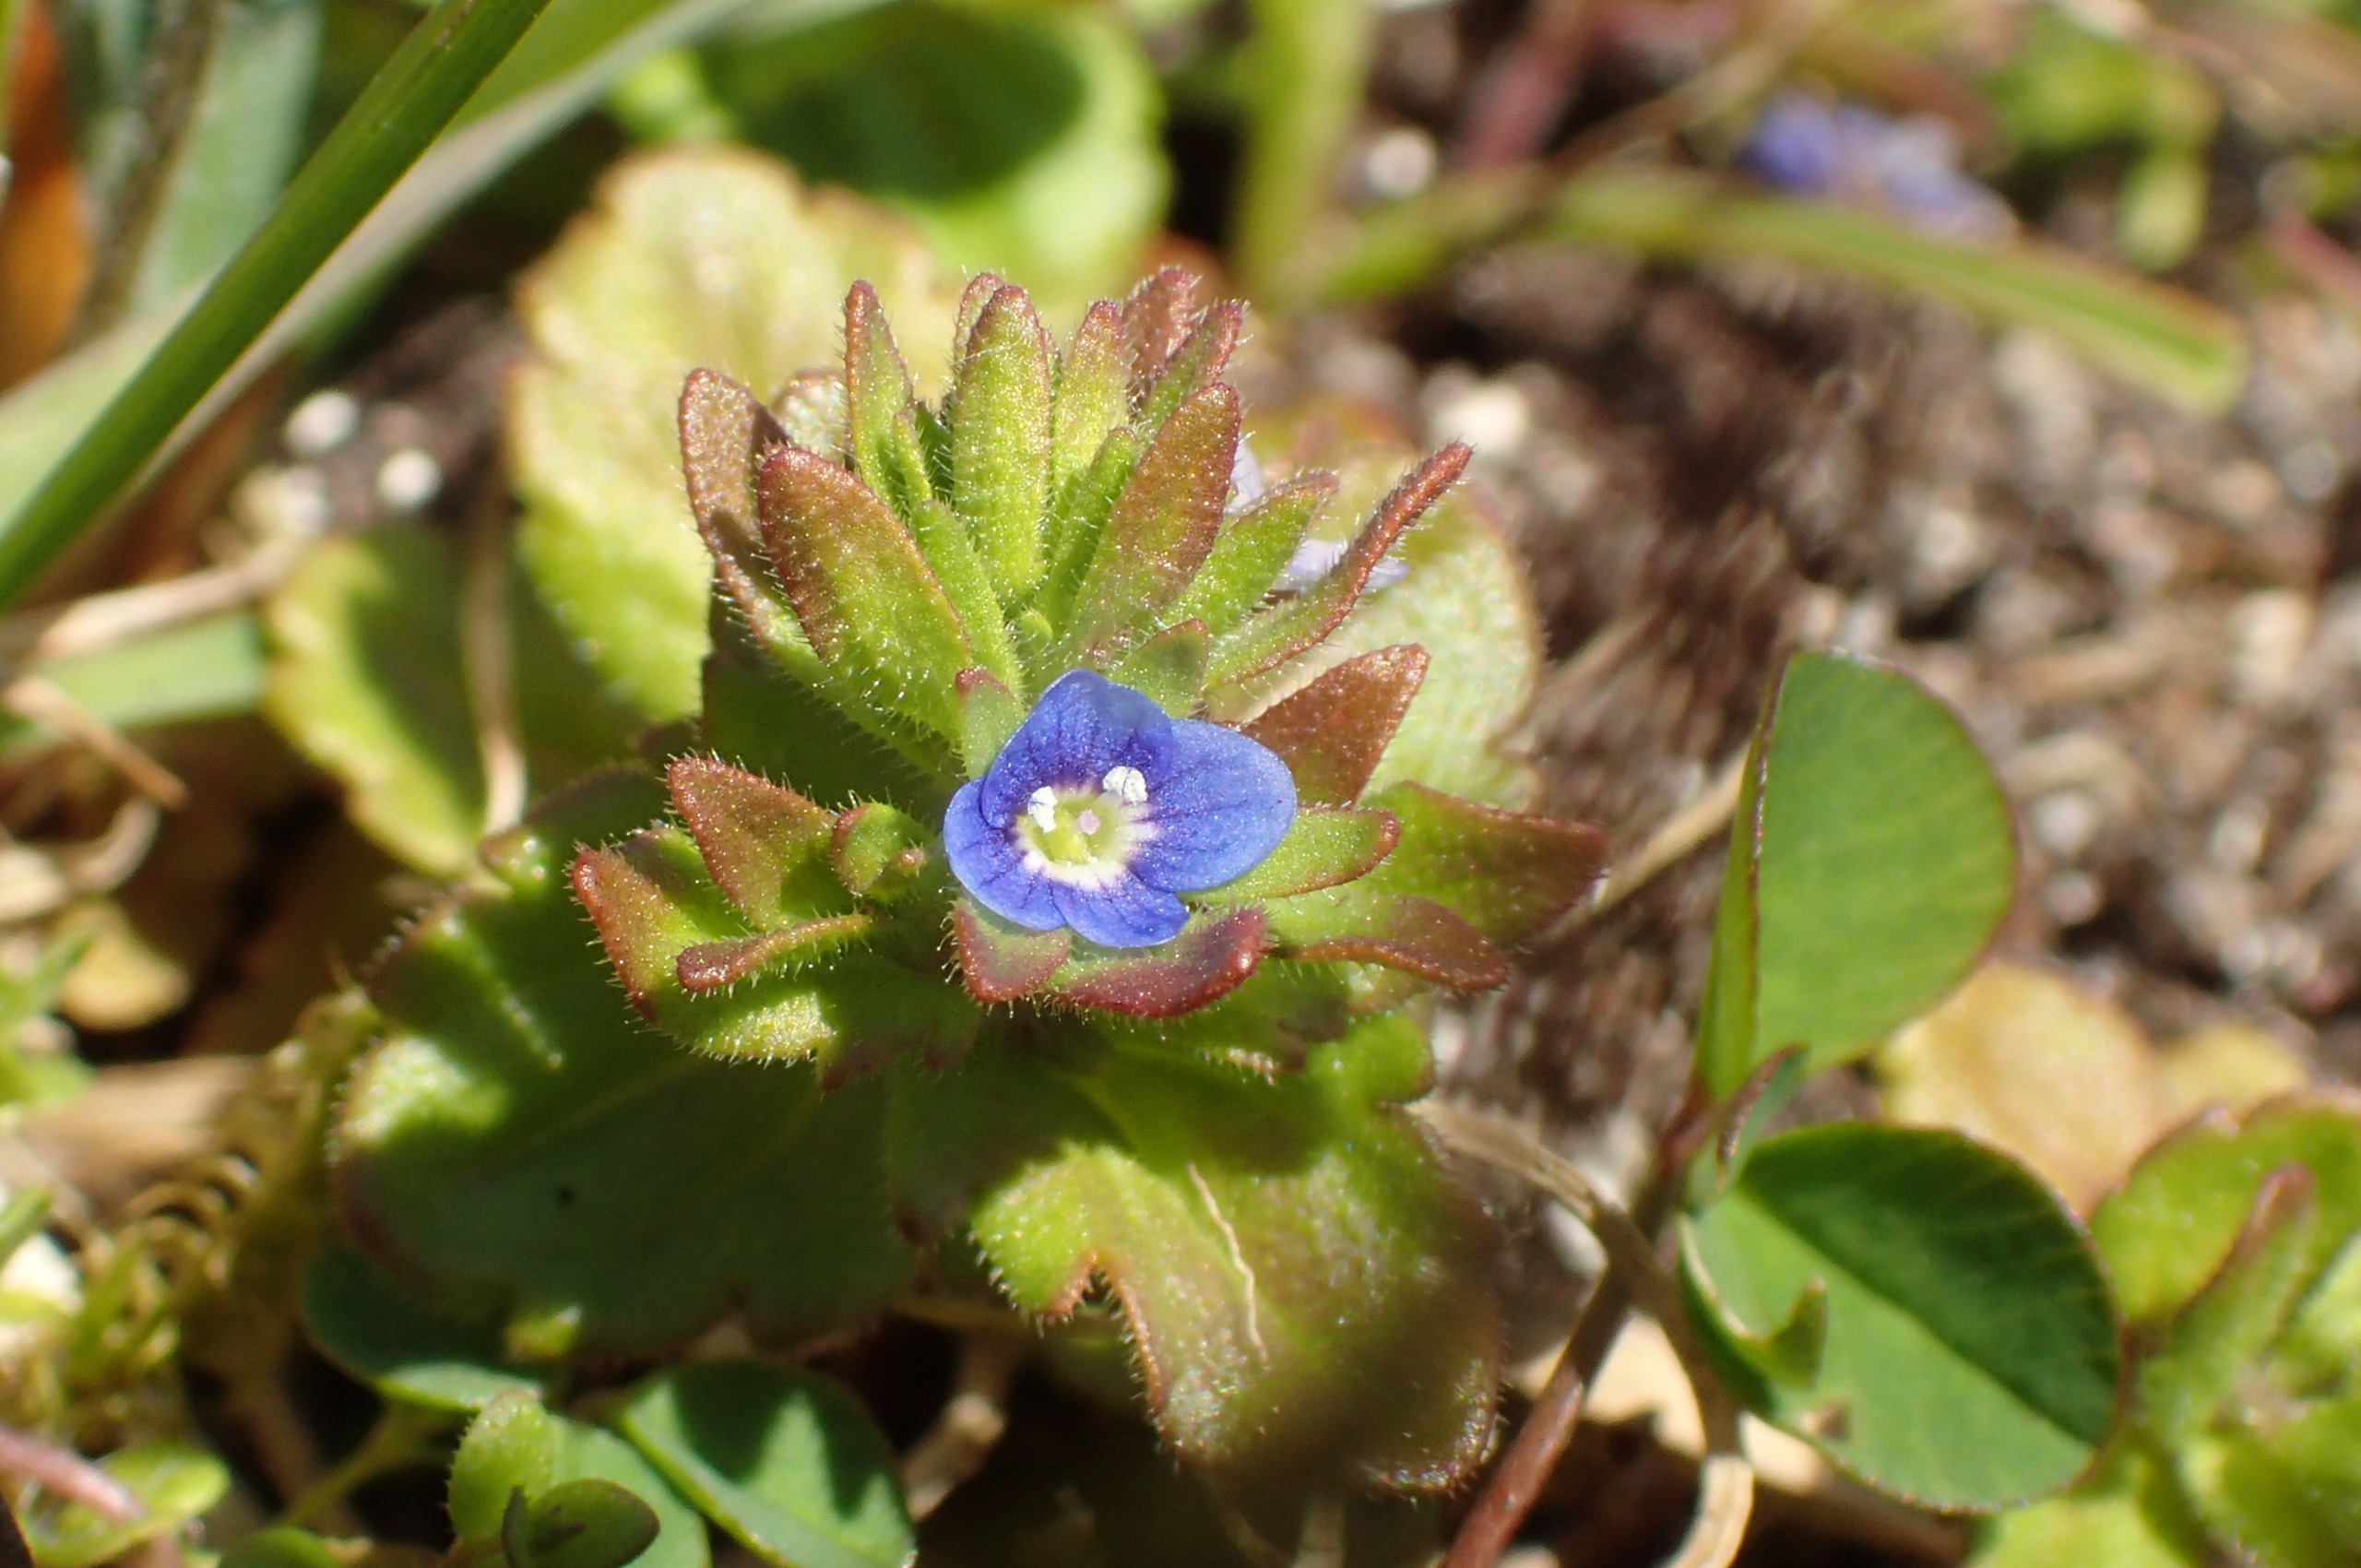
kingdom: Plantae
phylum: Tracheophyta
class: Magnoliopsida
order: Lamiales
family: Plantaginaceae
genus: Veronica
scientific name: Veronica arvensis
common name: Mark-ærenpris
